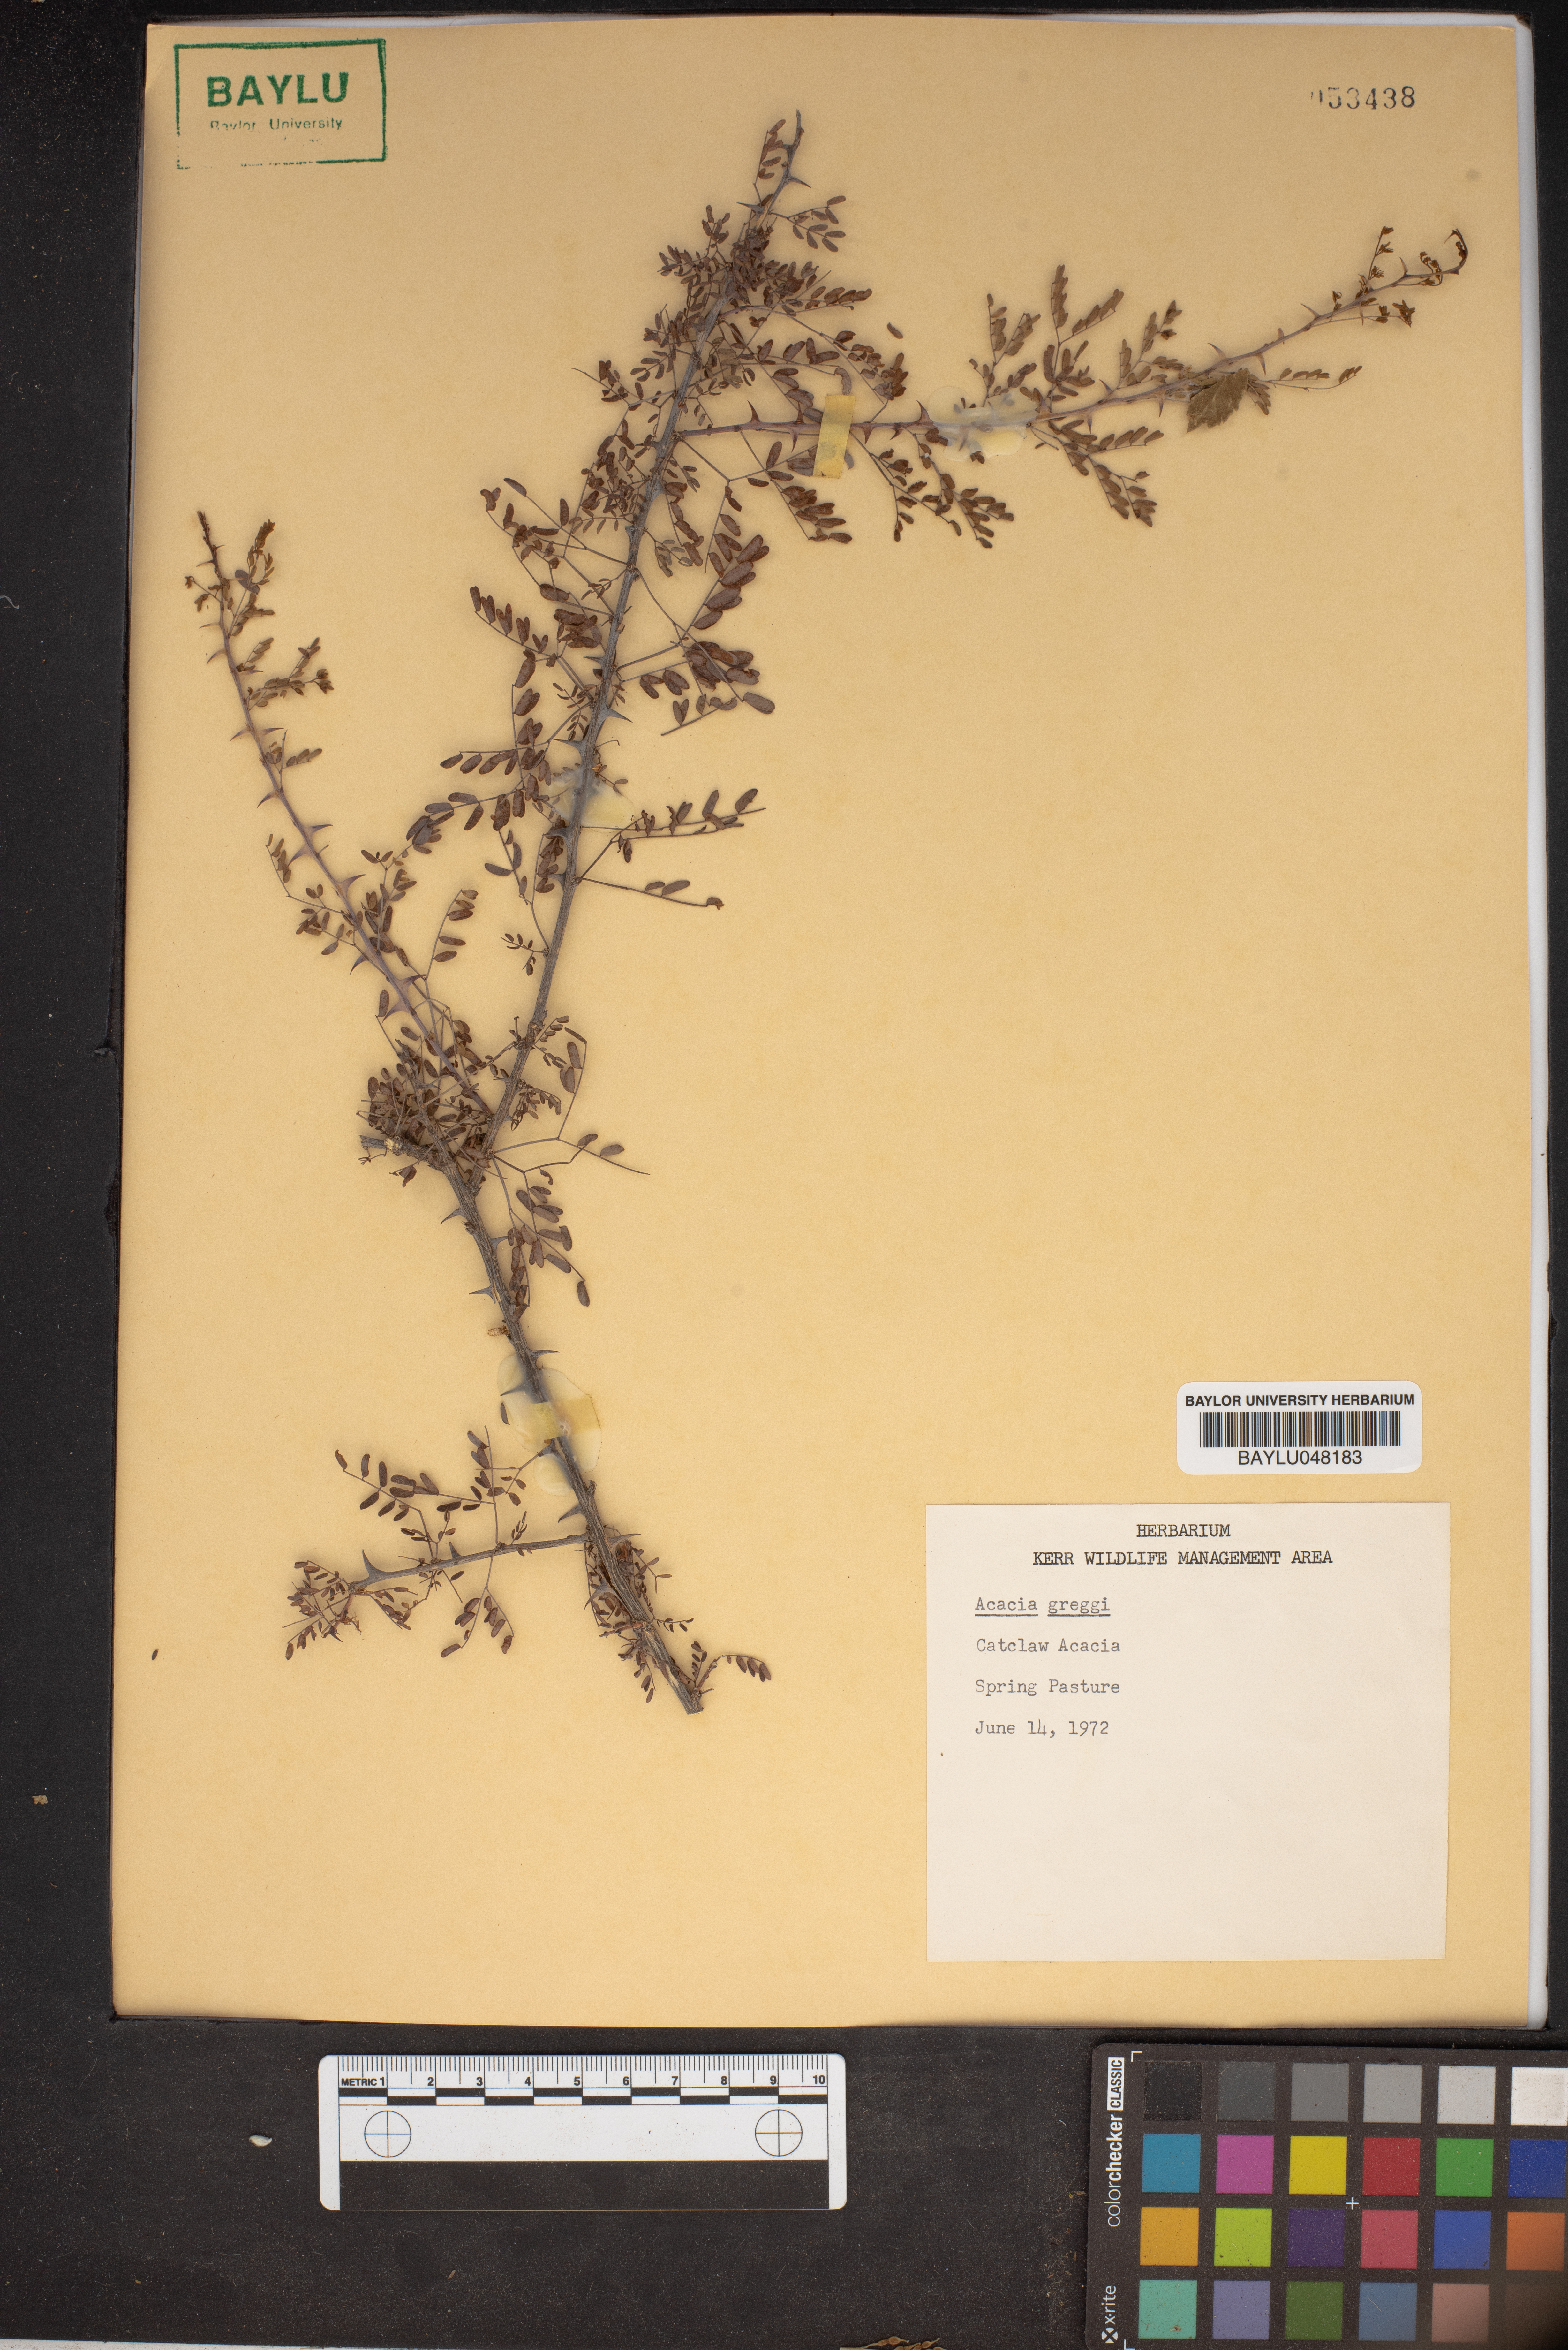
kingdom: Plantae
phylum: Tracheophyta
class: Magnoliopsida
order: Fabales
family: Fabaceae
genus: Senegalia
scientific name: Senegalia greggii
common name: Texas-mimosa
